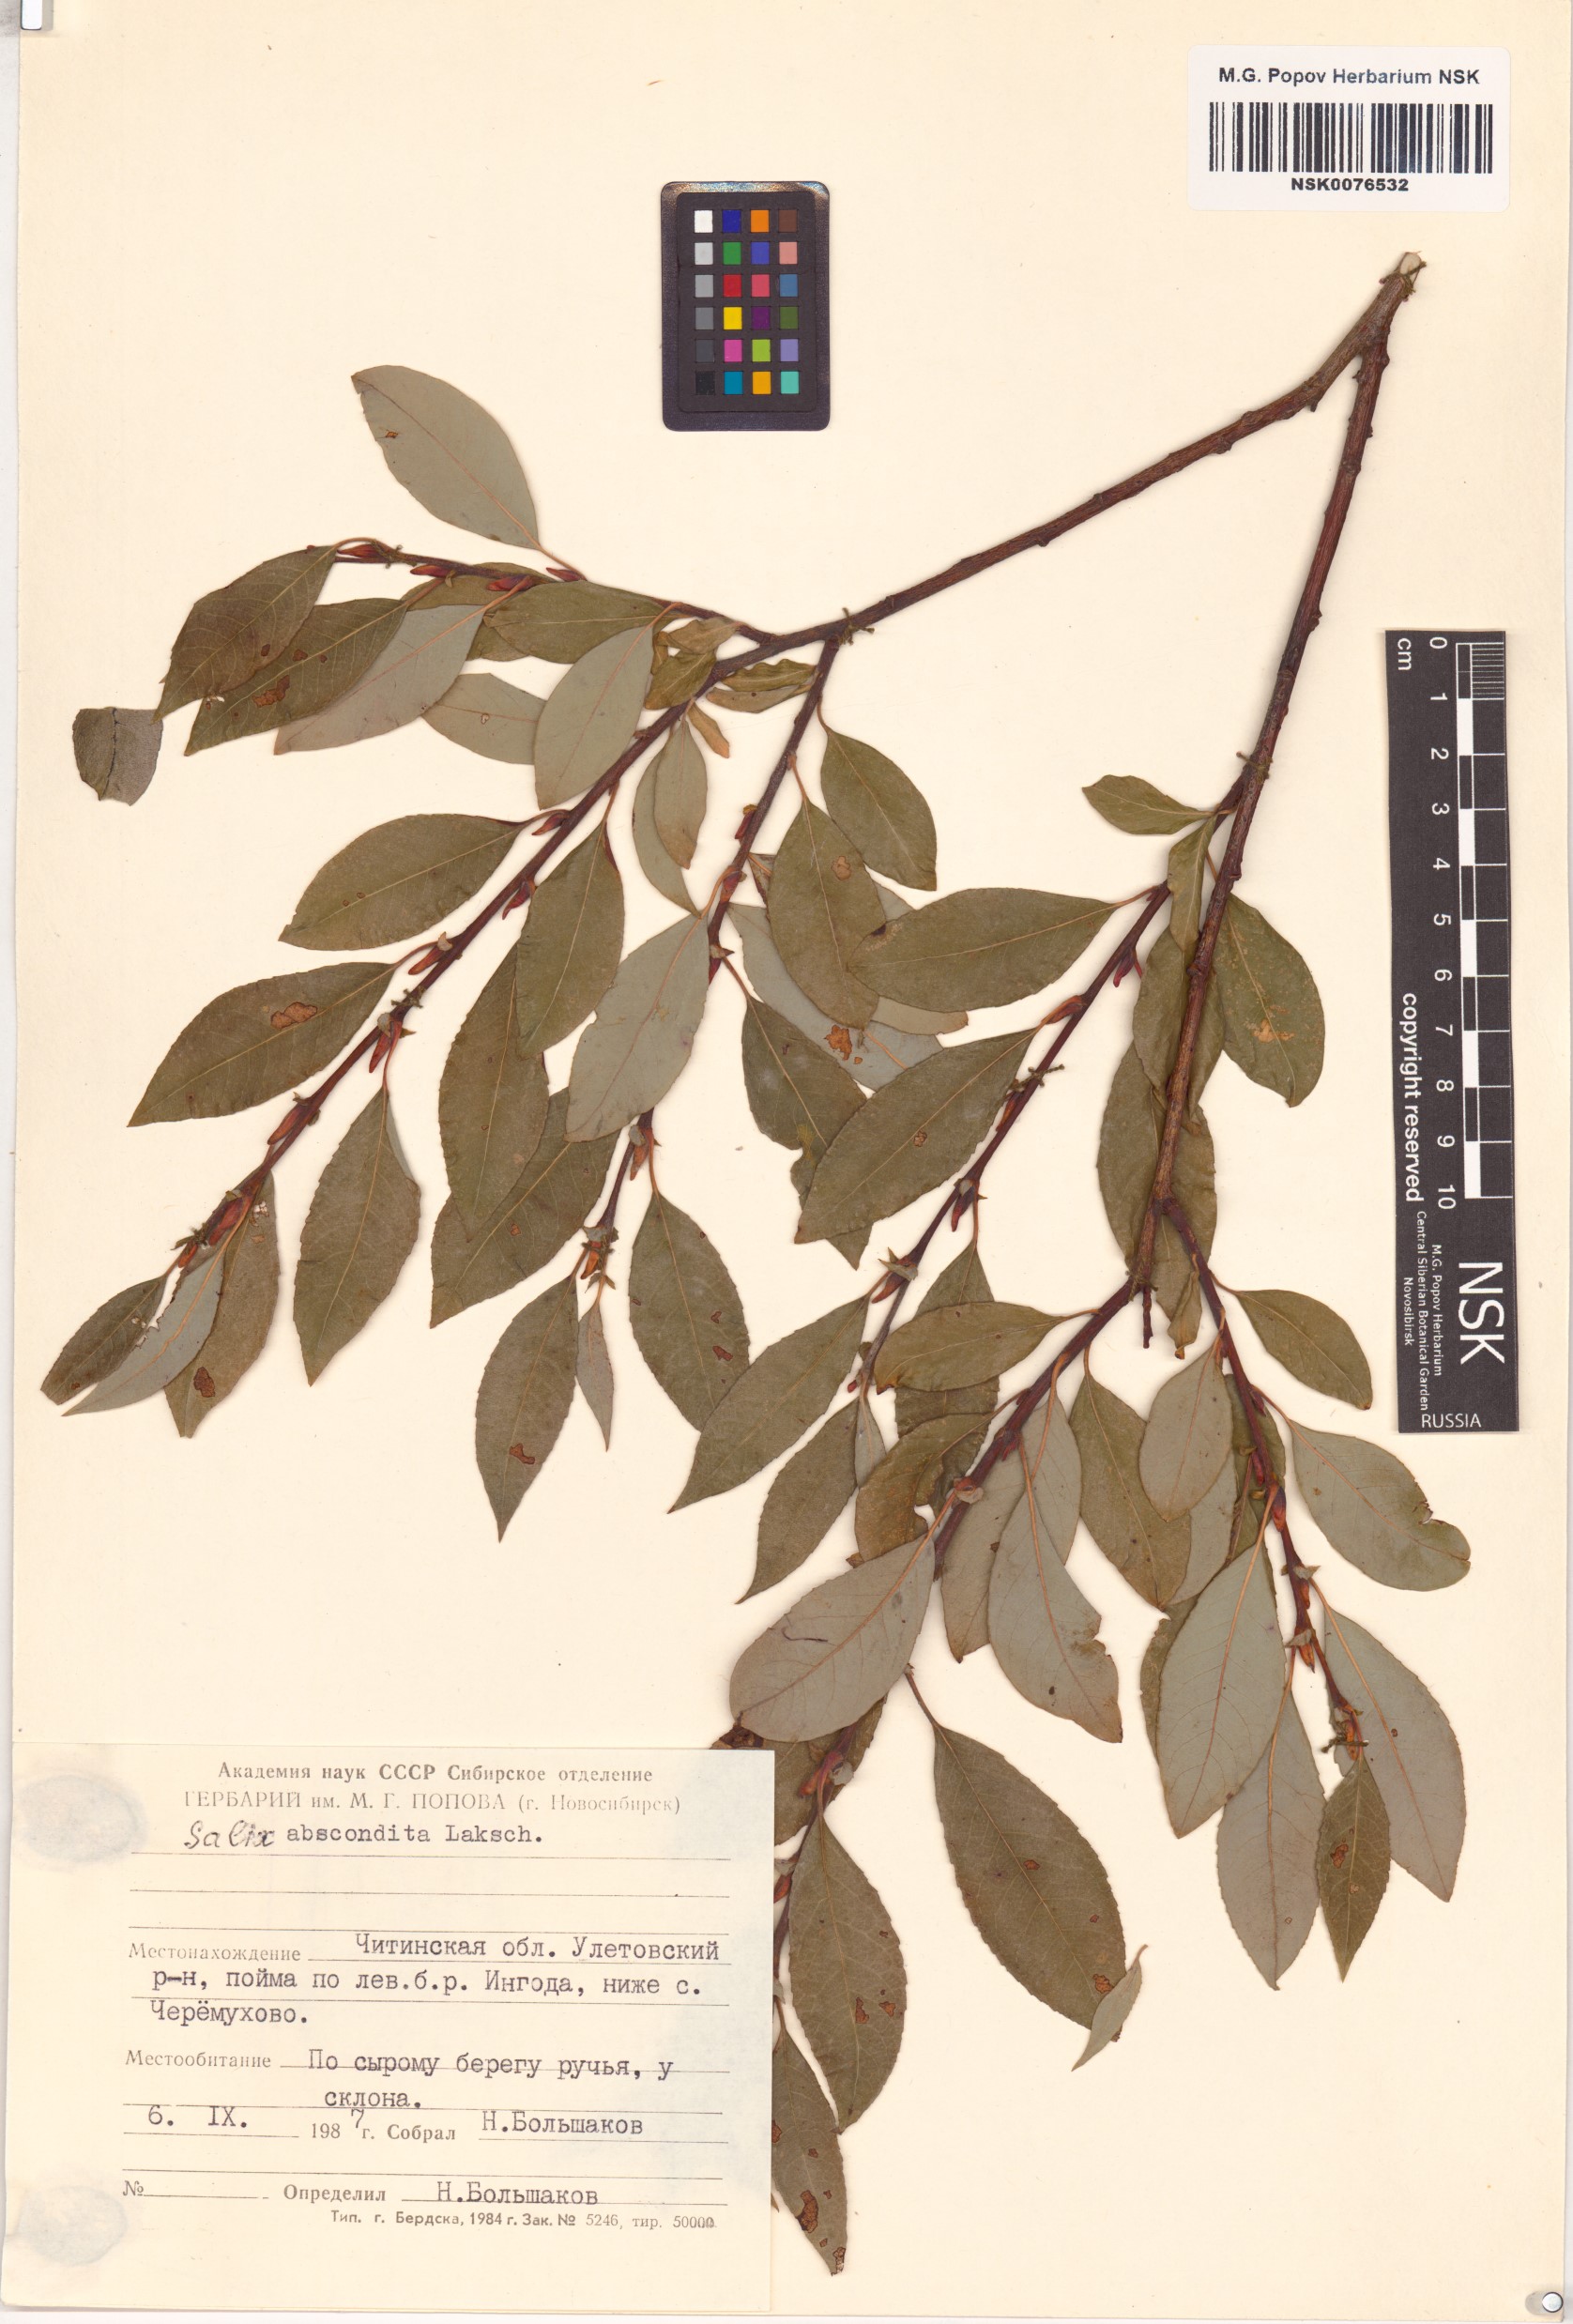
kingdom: Plantae
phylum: Tracheophyta
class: Magnoliopsida
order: Malpighiales
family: Salicaceae
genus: Salix
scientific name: Salix abscondita
